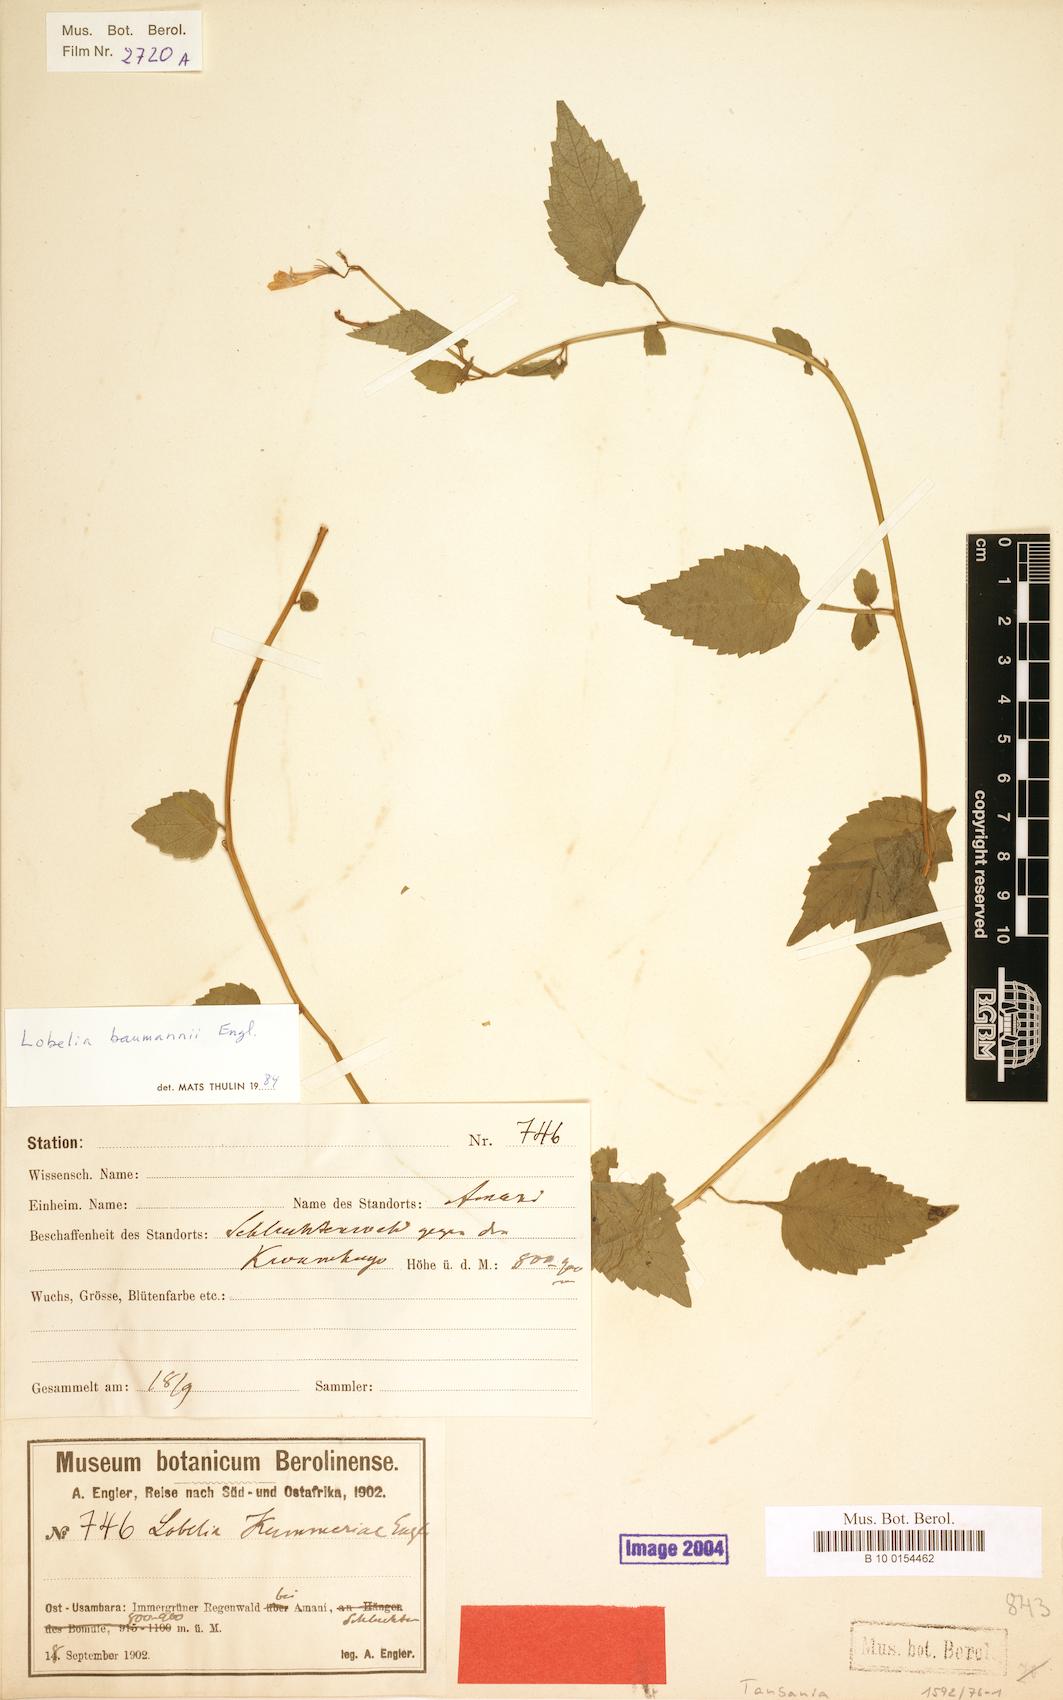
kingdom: Plantae
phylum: Tracheophyta
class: Magnoliopsida
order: Asterales
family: Campanulaceae
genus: Lobelia
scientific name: Lobelia baumannii
